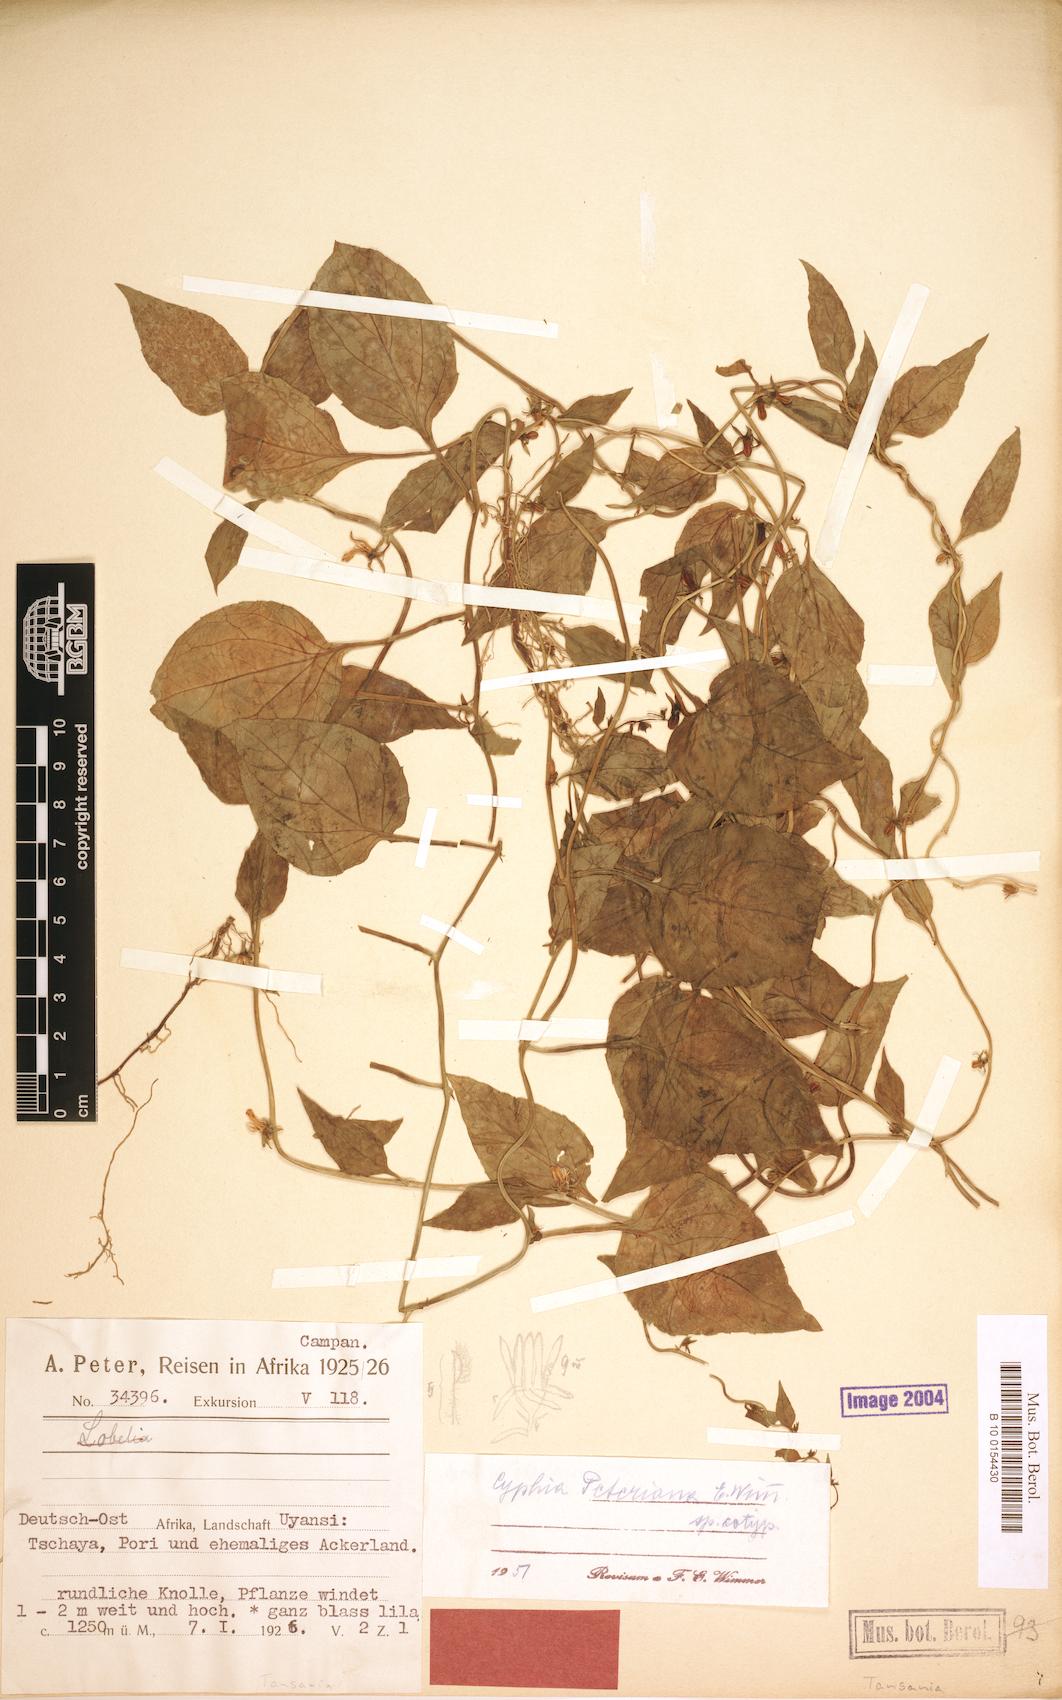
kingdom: Plantae
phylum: Tracheophyta
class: Magnoliopsida
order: Asterales
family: Campanulaceae
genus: Cyphia
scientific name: Cyphia lasiandra
